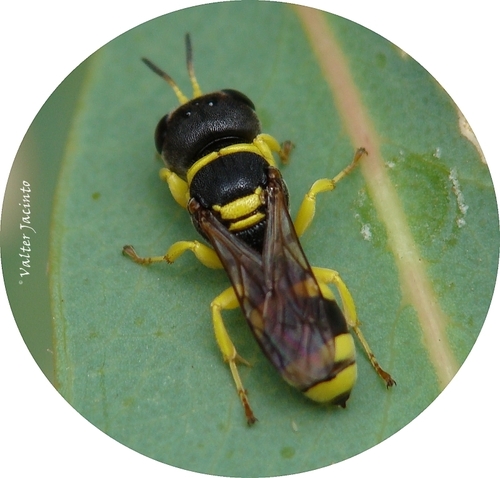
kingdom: Animalia
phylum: Arthropoda
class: Insecta
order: Hymenoptera
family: Crabronidae
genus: Ectemnius
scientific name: Ectemnius hypsae
